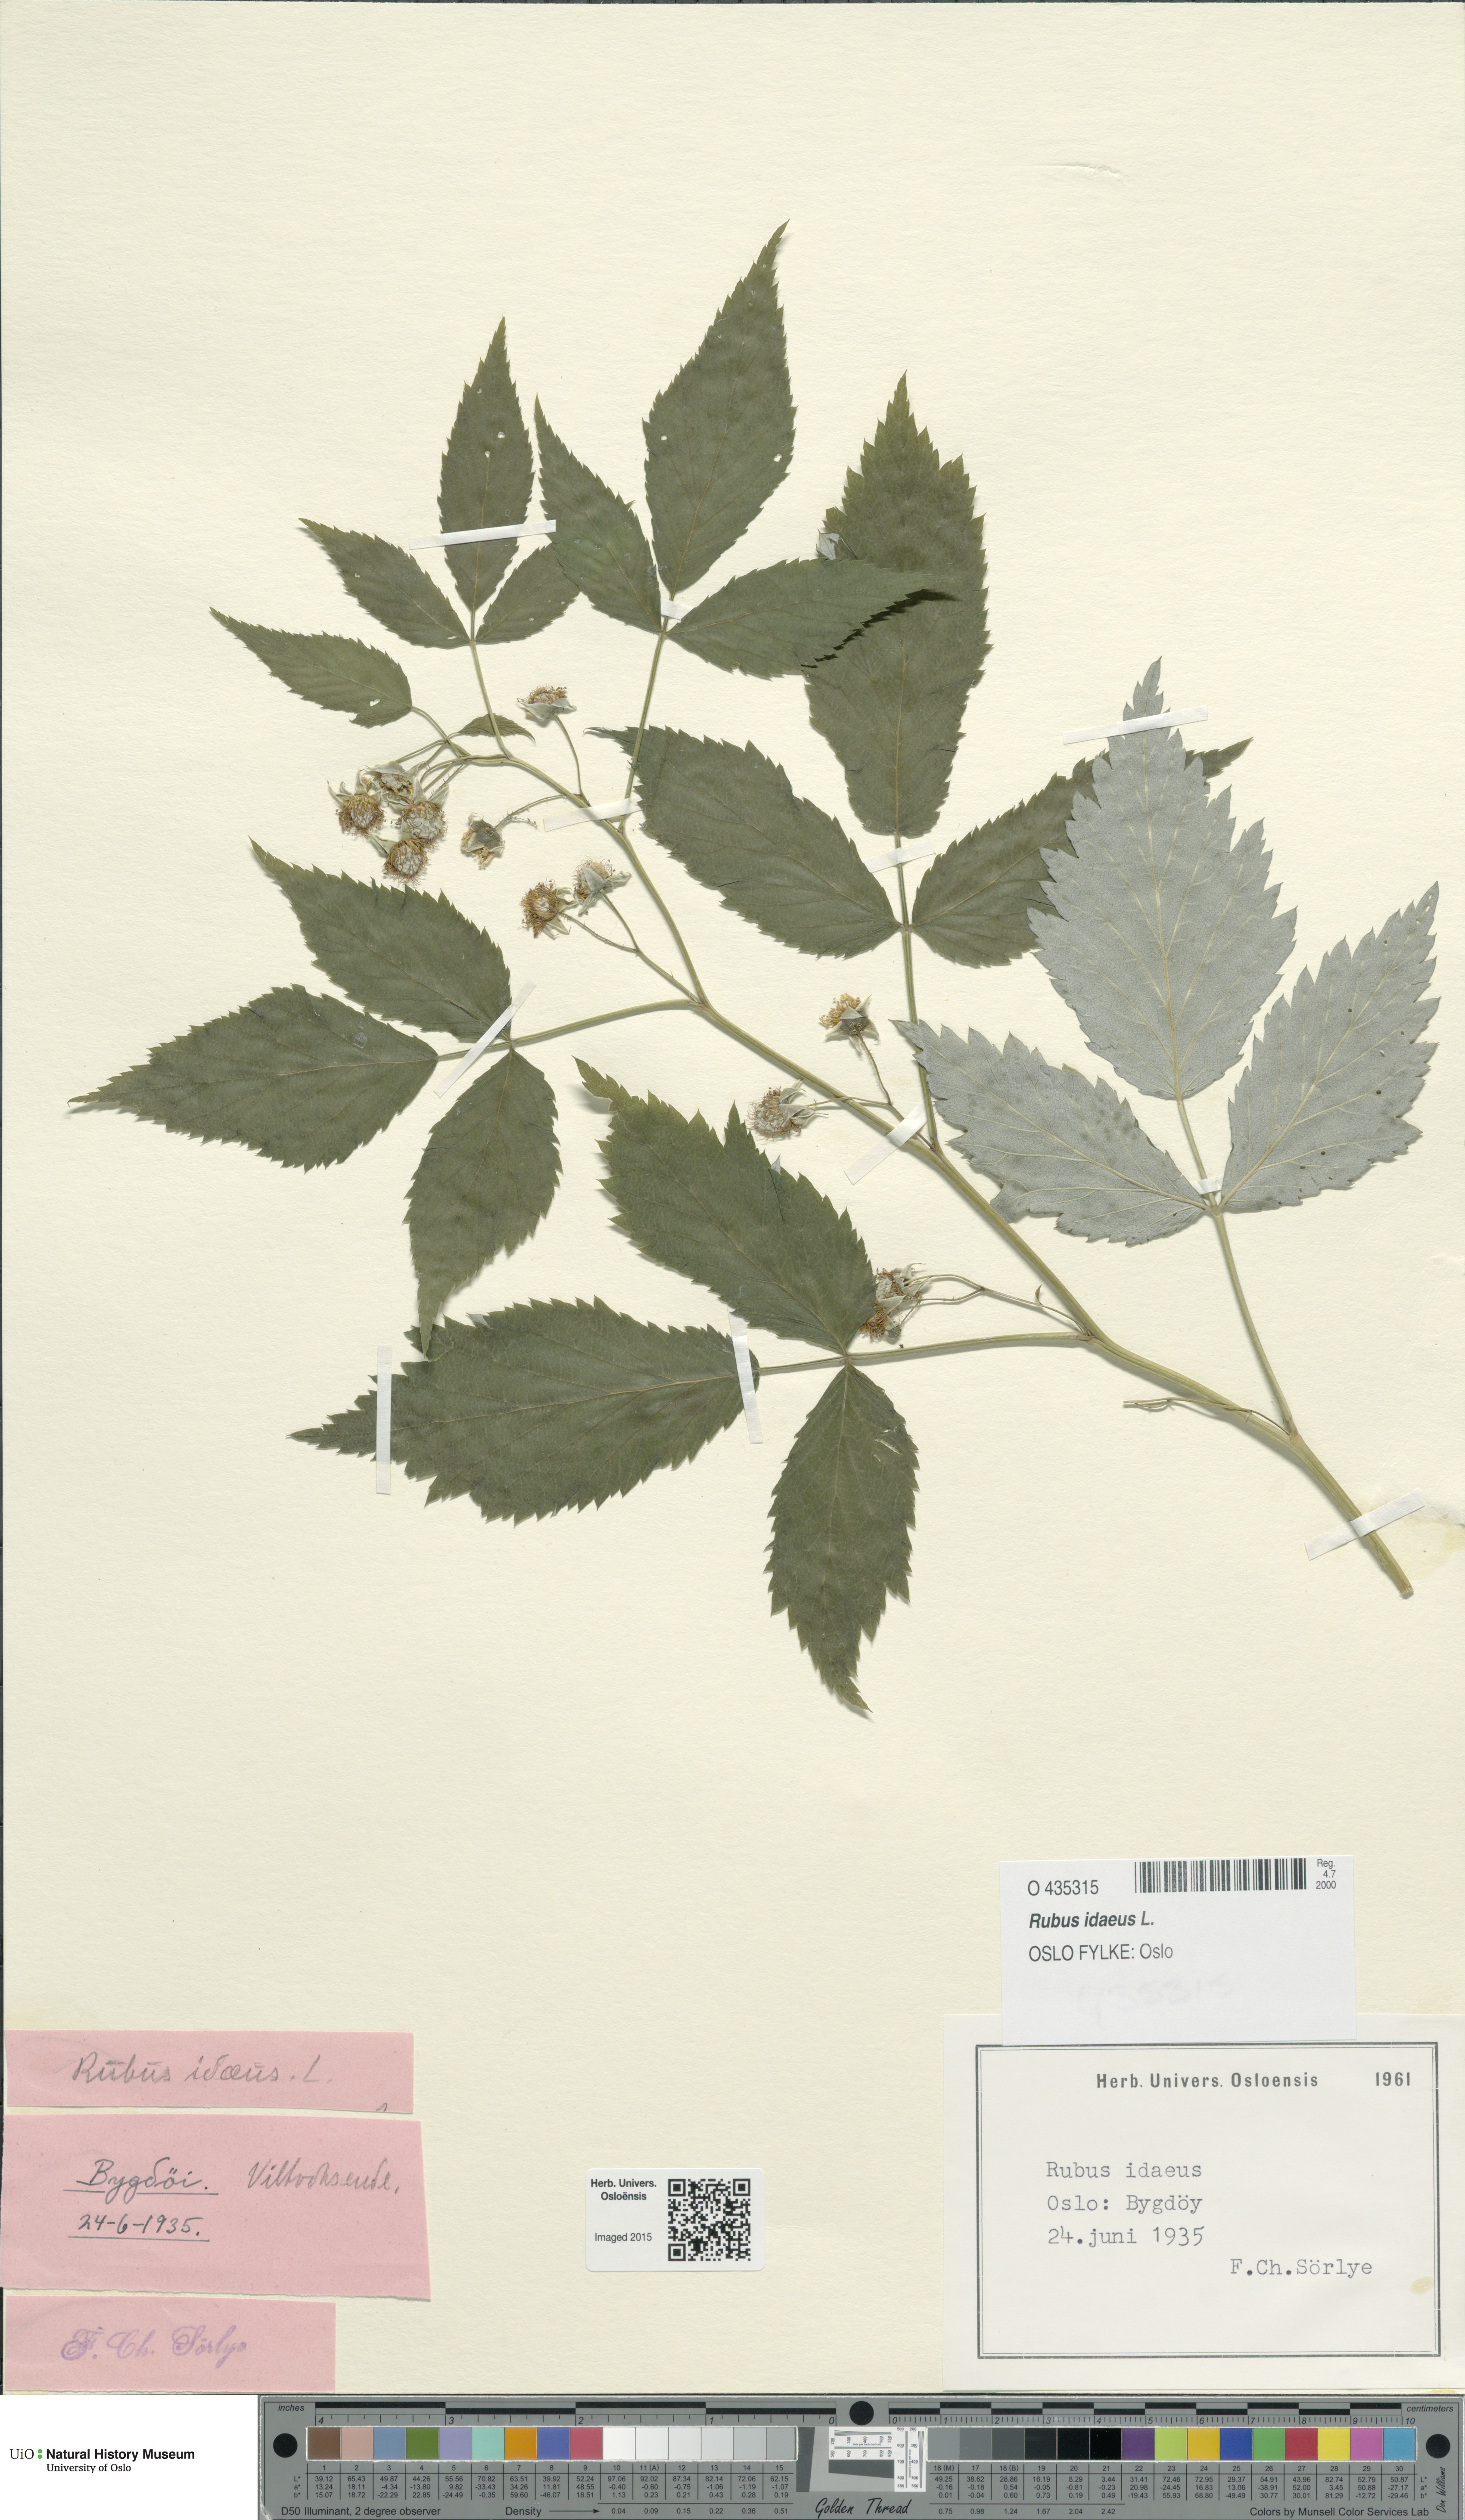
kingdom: Plantae
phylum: Tracheophyta
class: Magnoliopsida
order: Rosales
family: Rosaceae
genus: Rubus
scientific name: Rubus idaeus
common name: Raspberry
